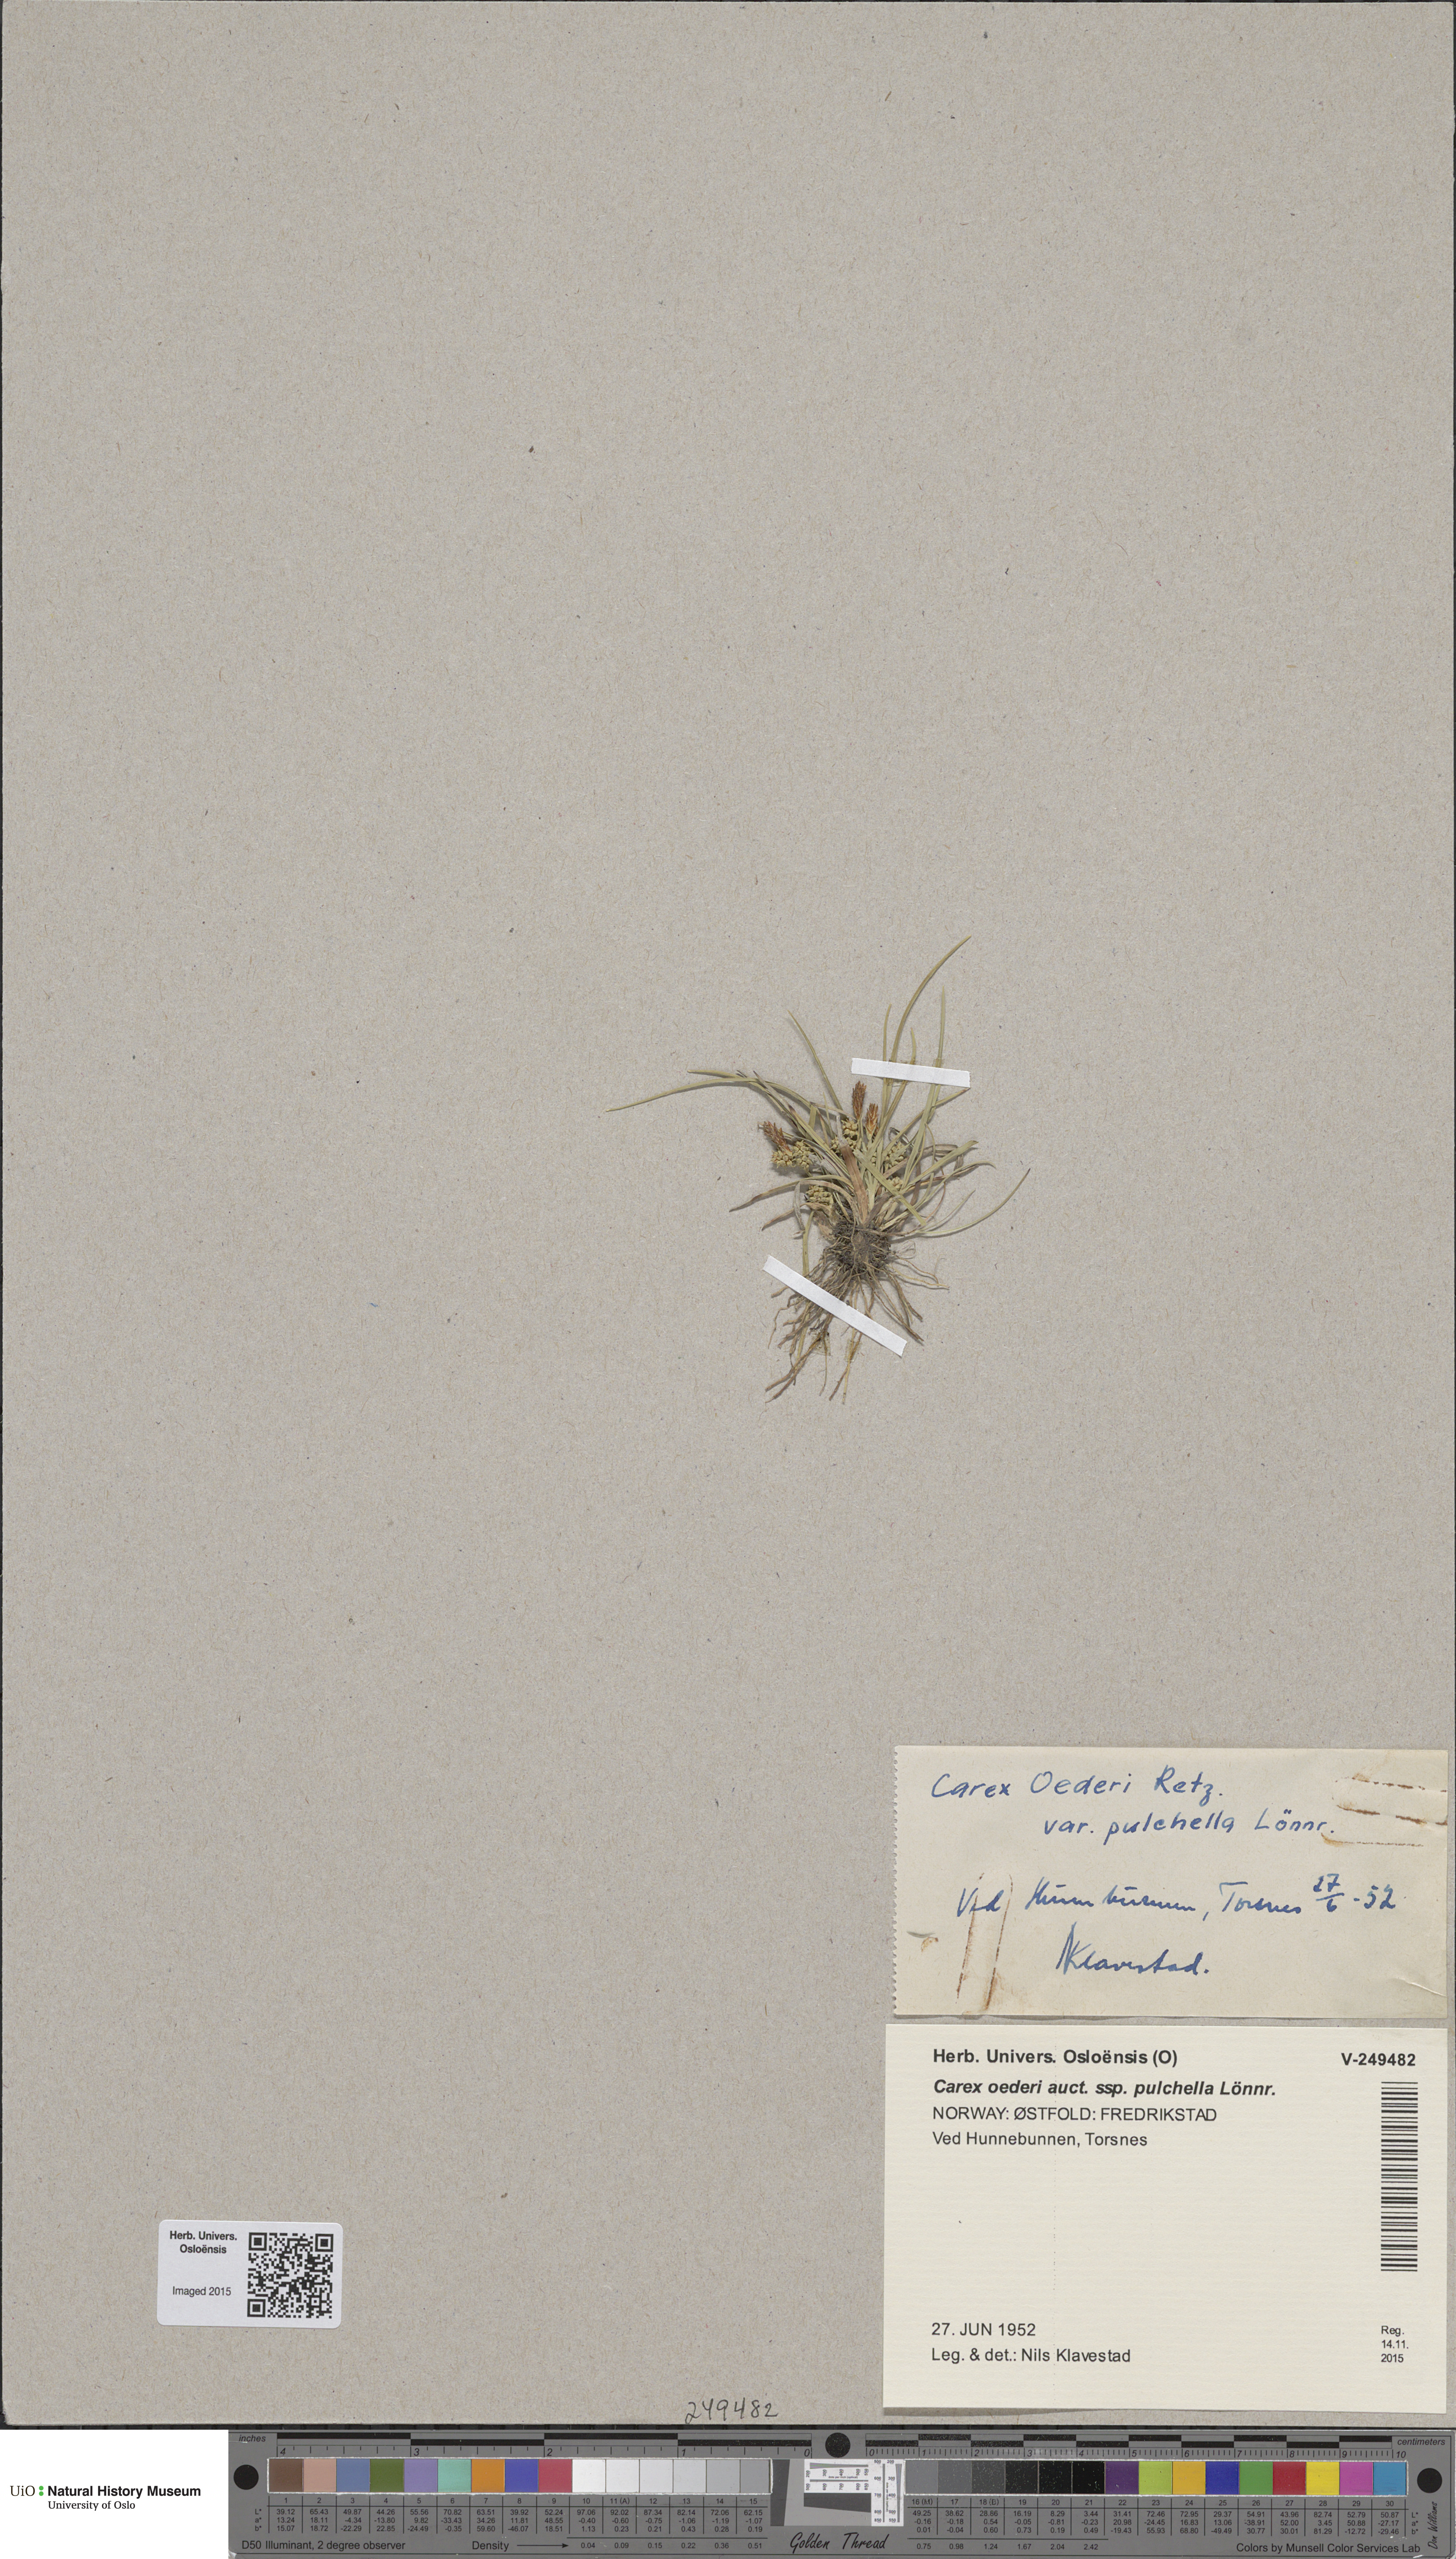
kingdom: Plantae
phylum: Tracheophyta
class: Liliopsida
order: Poales
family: Cyperaceae
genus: Carex
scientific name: Carex oederi
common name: Common & small-fruited yellow-sedge
